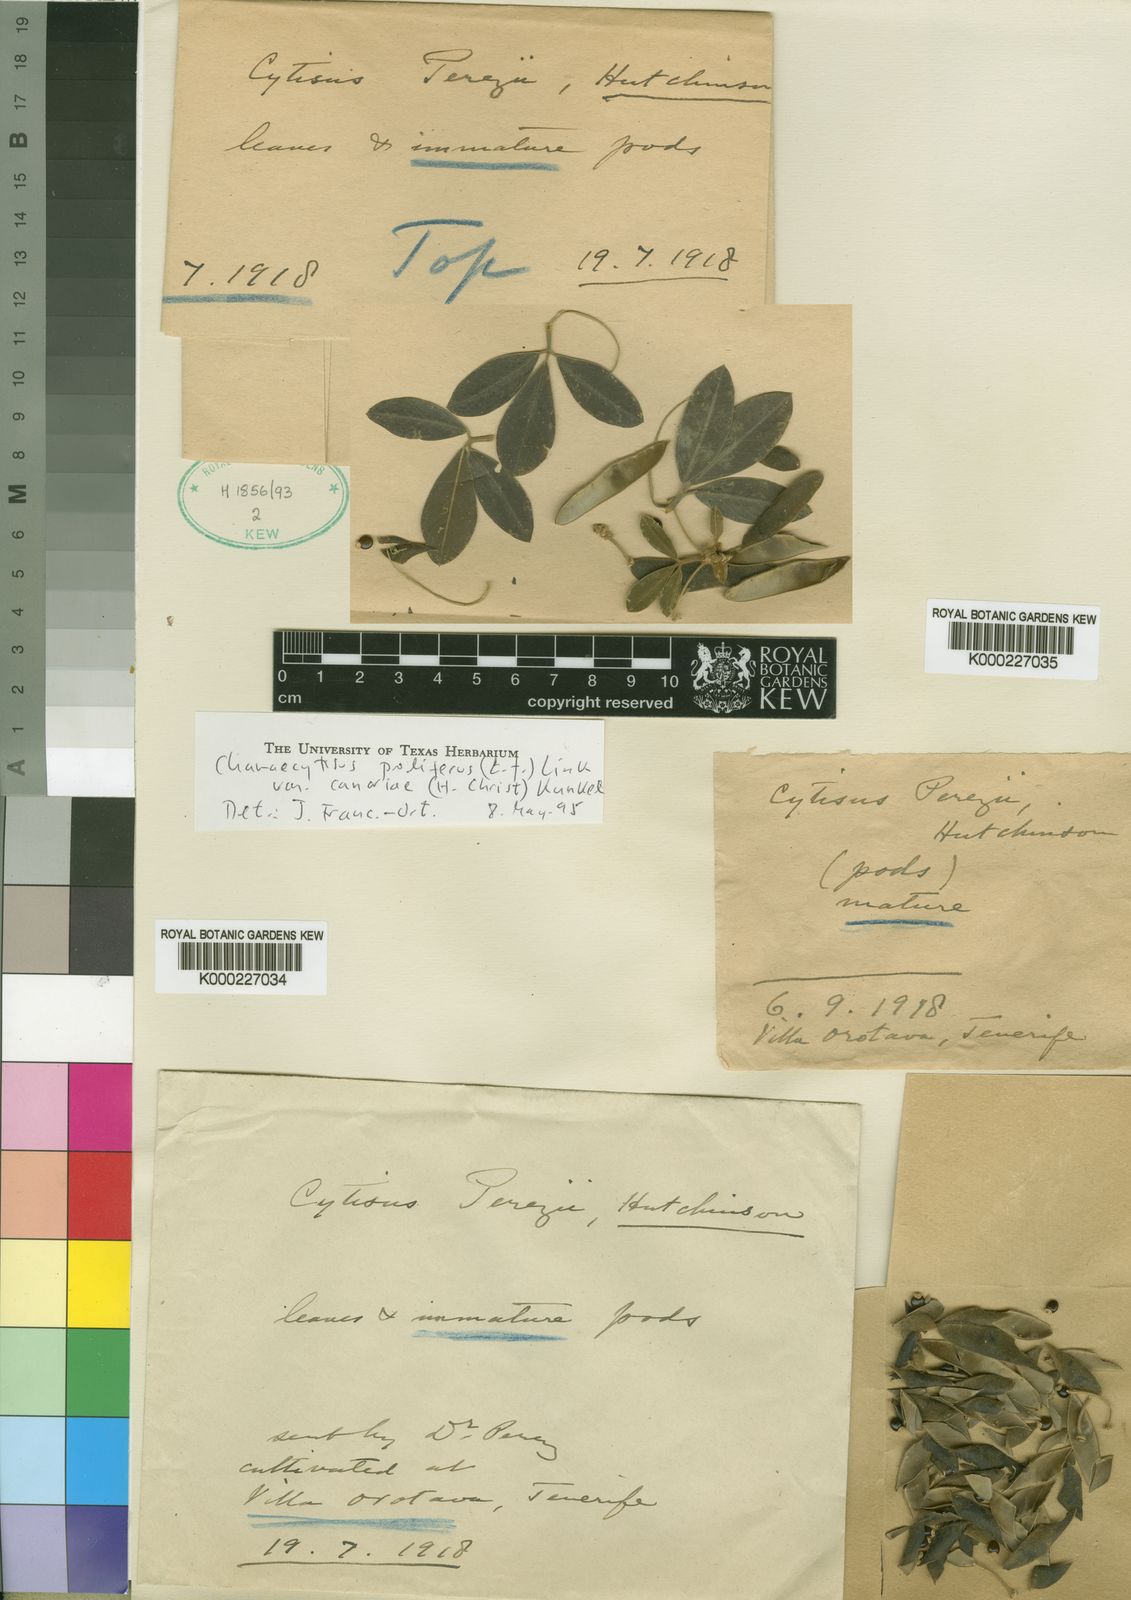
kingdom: Plantae
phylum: Tracheophyta
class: Magnoliopsida
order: Fabales
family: Fabaceae
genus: Chamaecytisus
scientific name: Chamaecytisus prolifer
